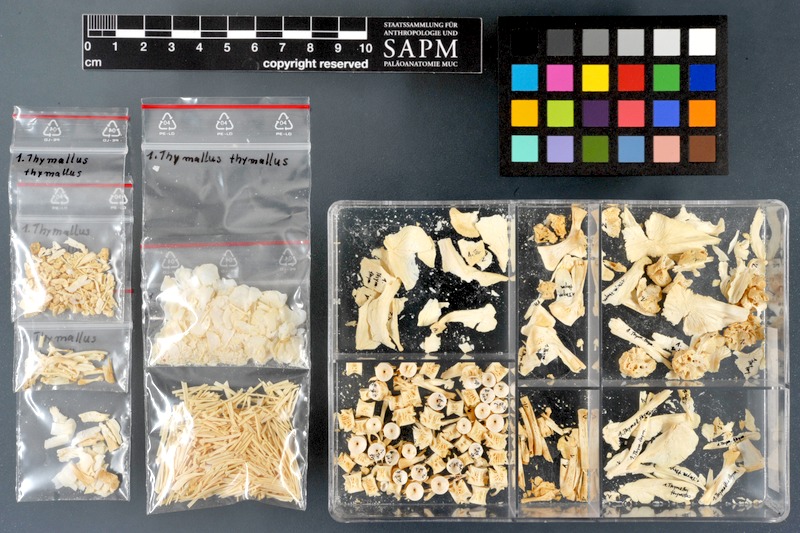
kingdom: Animalia
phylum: Chordata
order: Salmoniformes
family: Salmonidae
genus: Thymallus
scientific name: Thymallus thymallus
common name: Grayling
